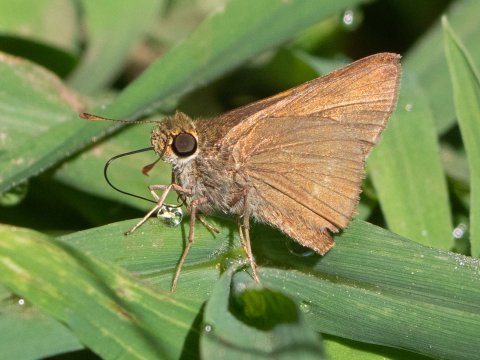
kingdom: Animalia
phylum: Arthropoda
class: Insecta
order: Lepidoptera
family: Hesperiidae
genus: Euphyes
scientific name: Euphyes vestris
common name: Dun Skipper
